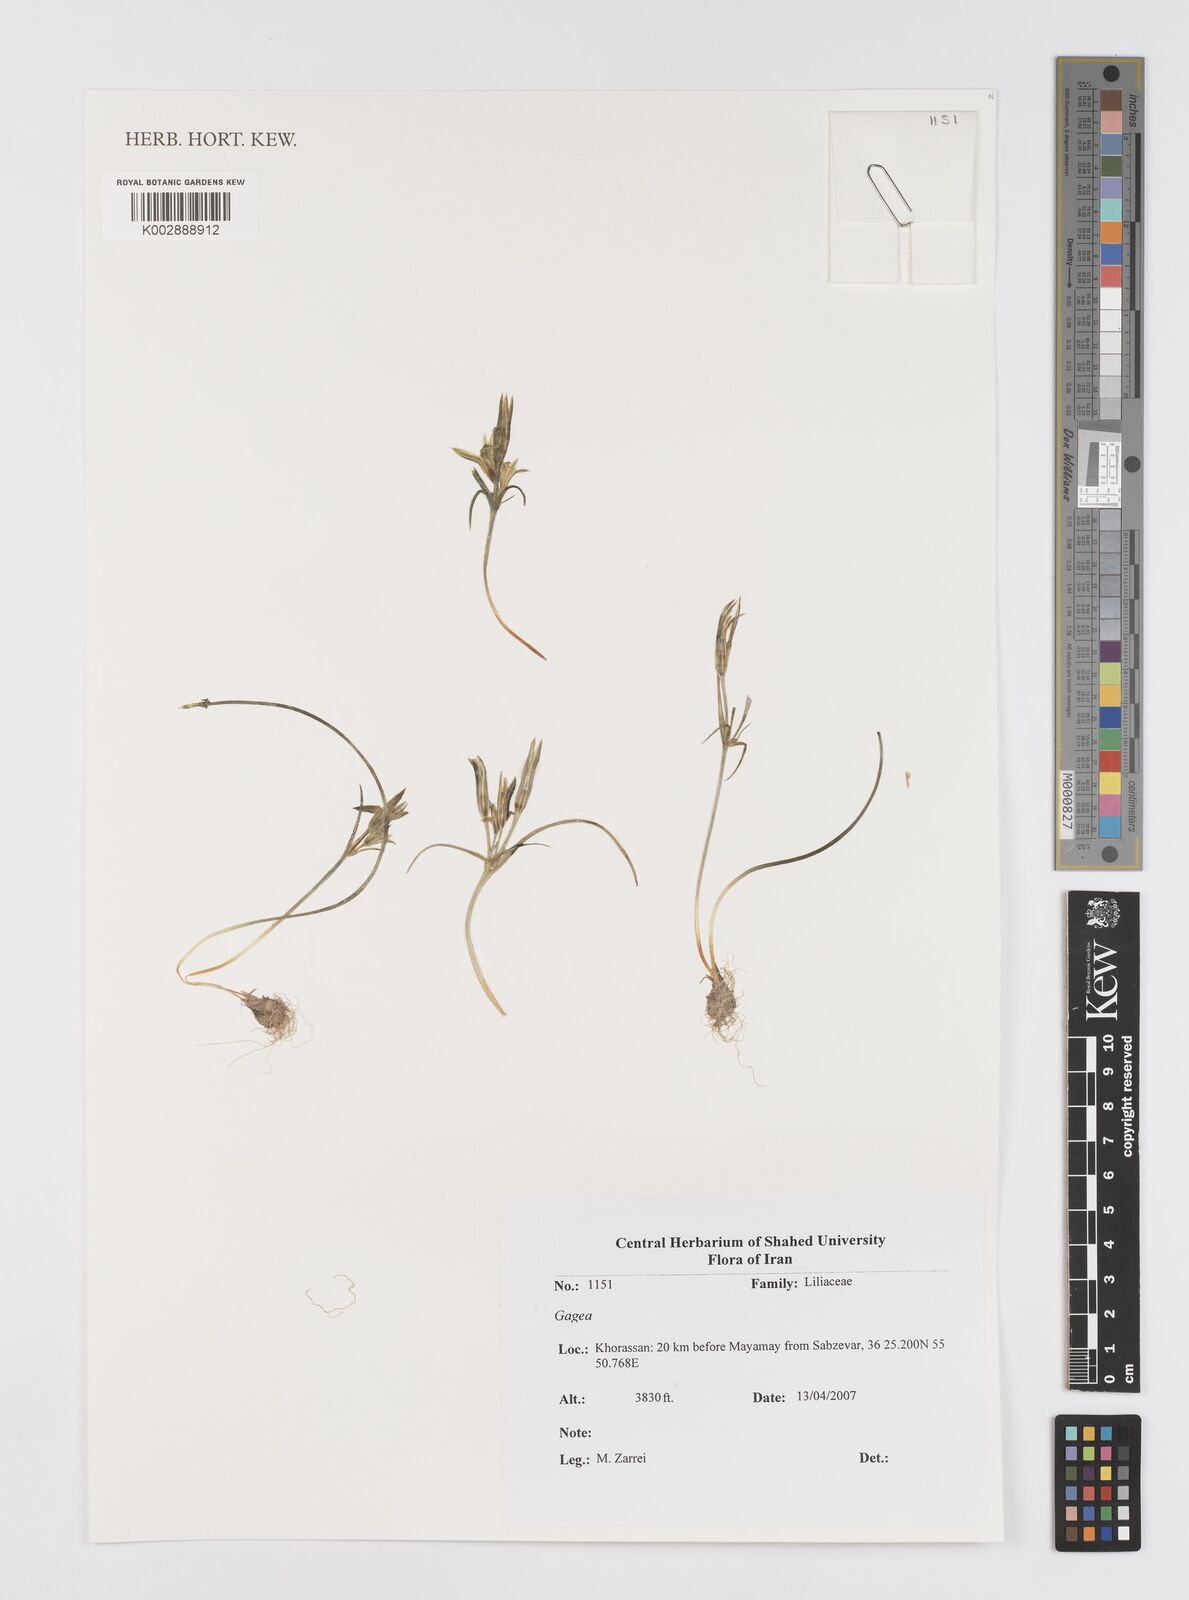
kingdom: Plantae
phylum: Tracheophyta
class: Liliopsida
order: Liliales
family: Liliaceae
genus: Gagea
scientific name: Gagea
